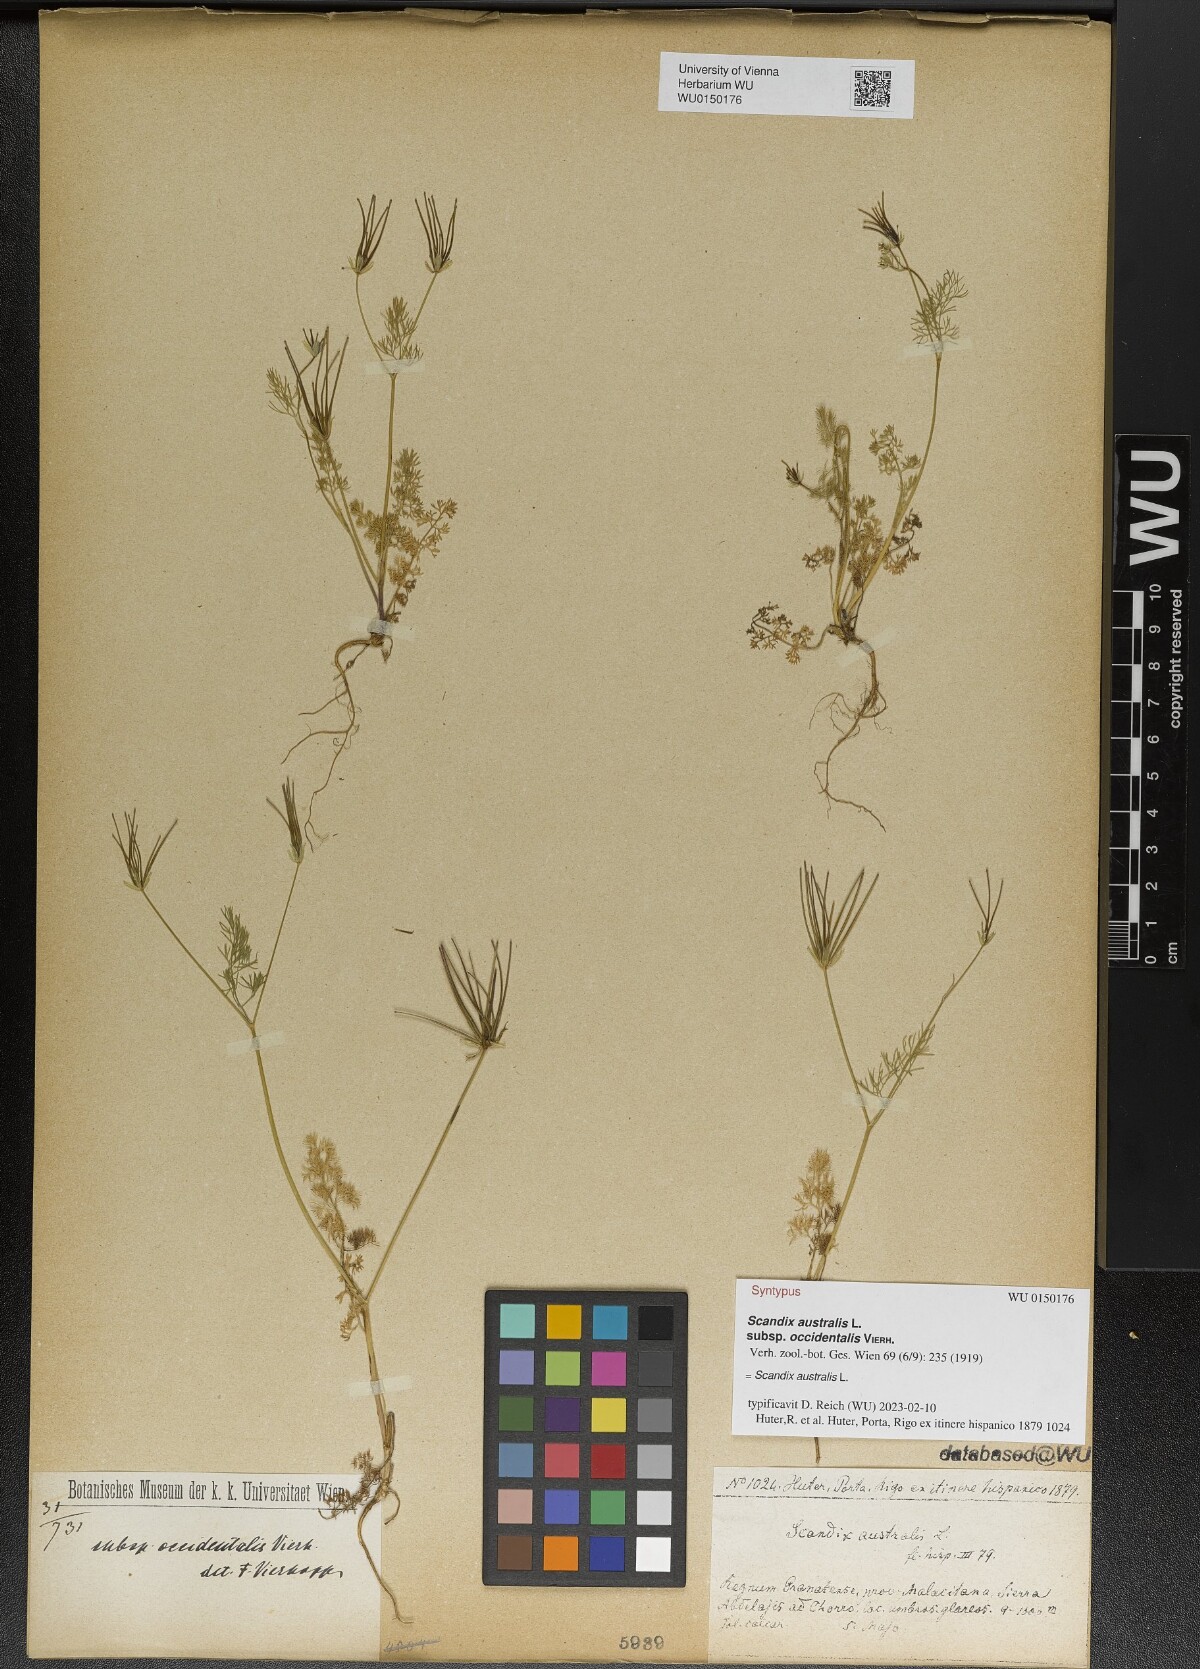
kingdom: Plantae
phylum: Tracheophyta
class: Magnoliopsida
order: Apiales
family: Apiaceae
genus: Scandix
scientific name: Scandix australis
